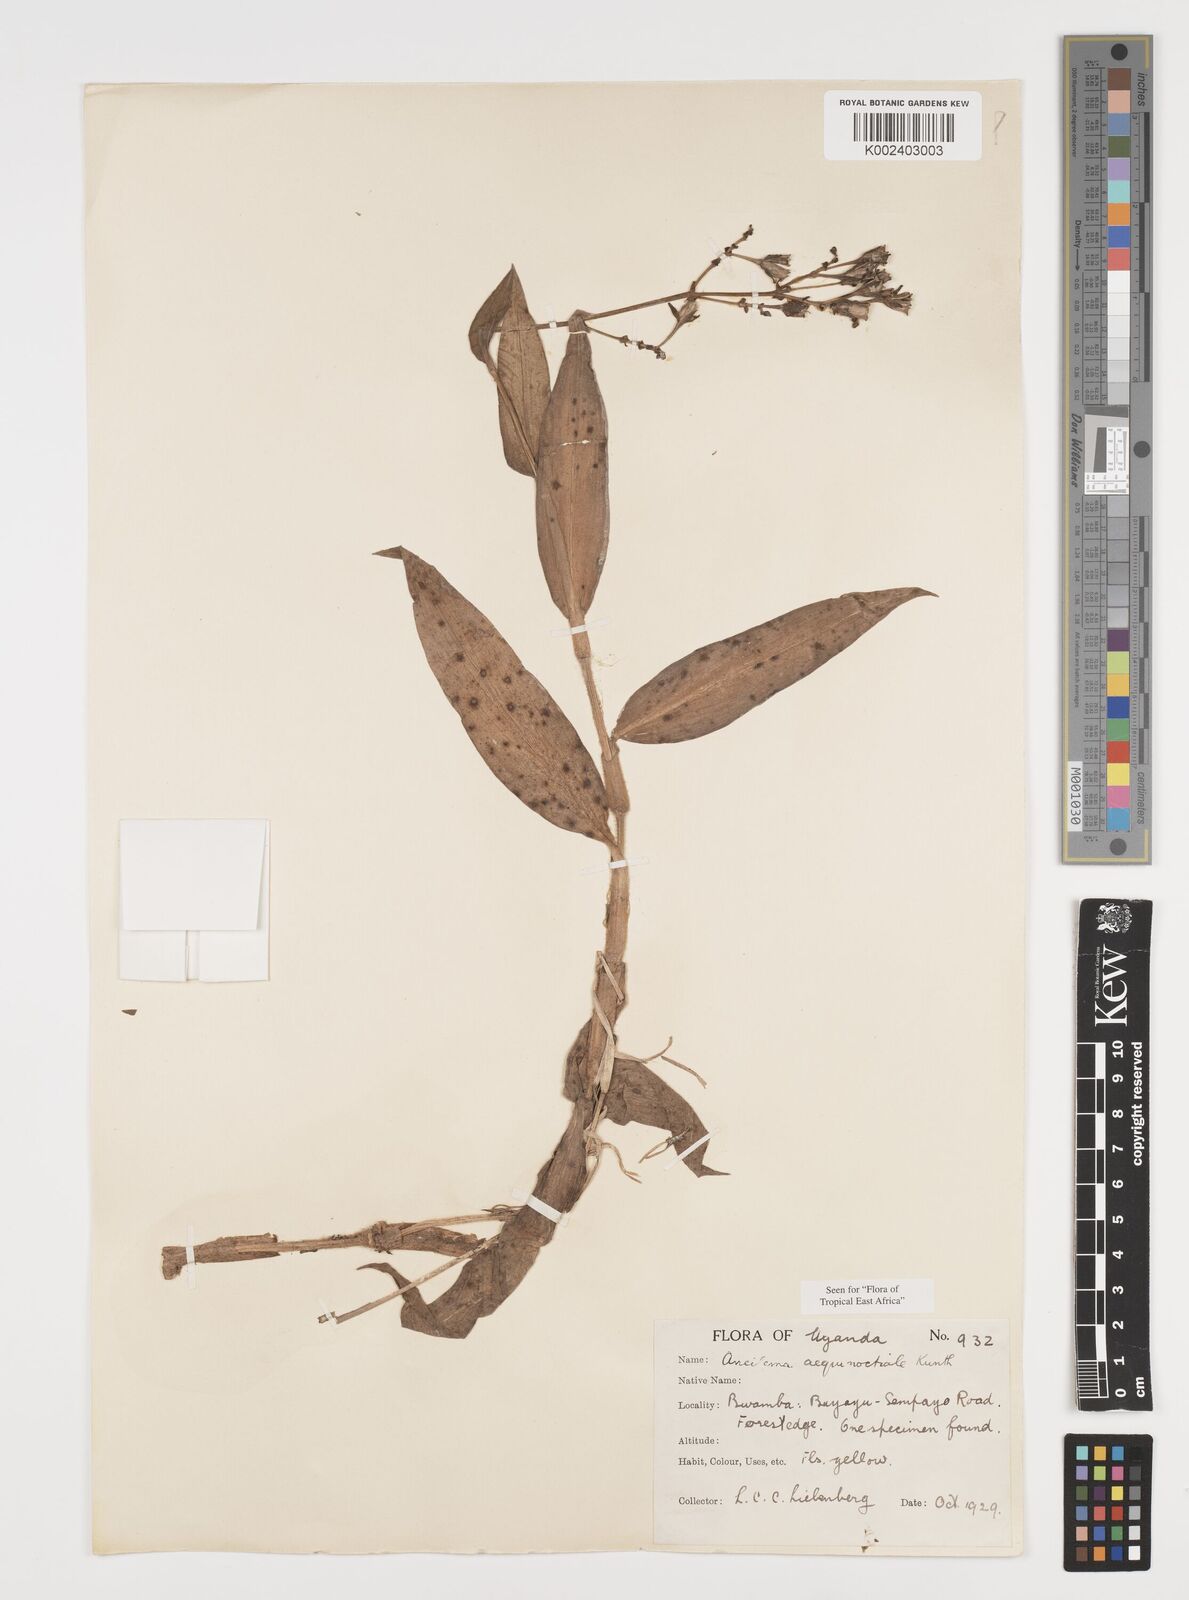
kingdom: Plantae
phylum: Tracheophyta
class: Liliopsida
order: Commelinales
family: Commelinaceae
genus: Aneilema
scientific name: Aneilema aequinoctiale
